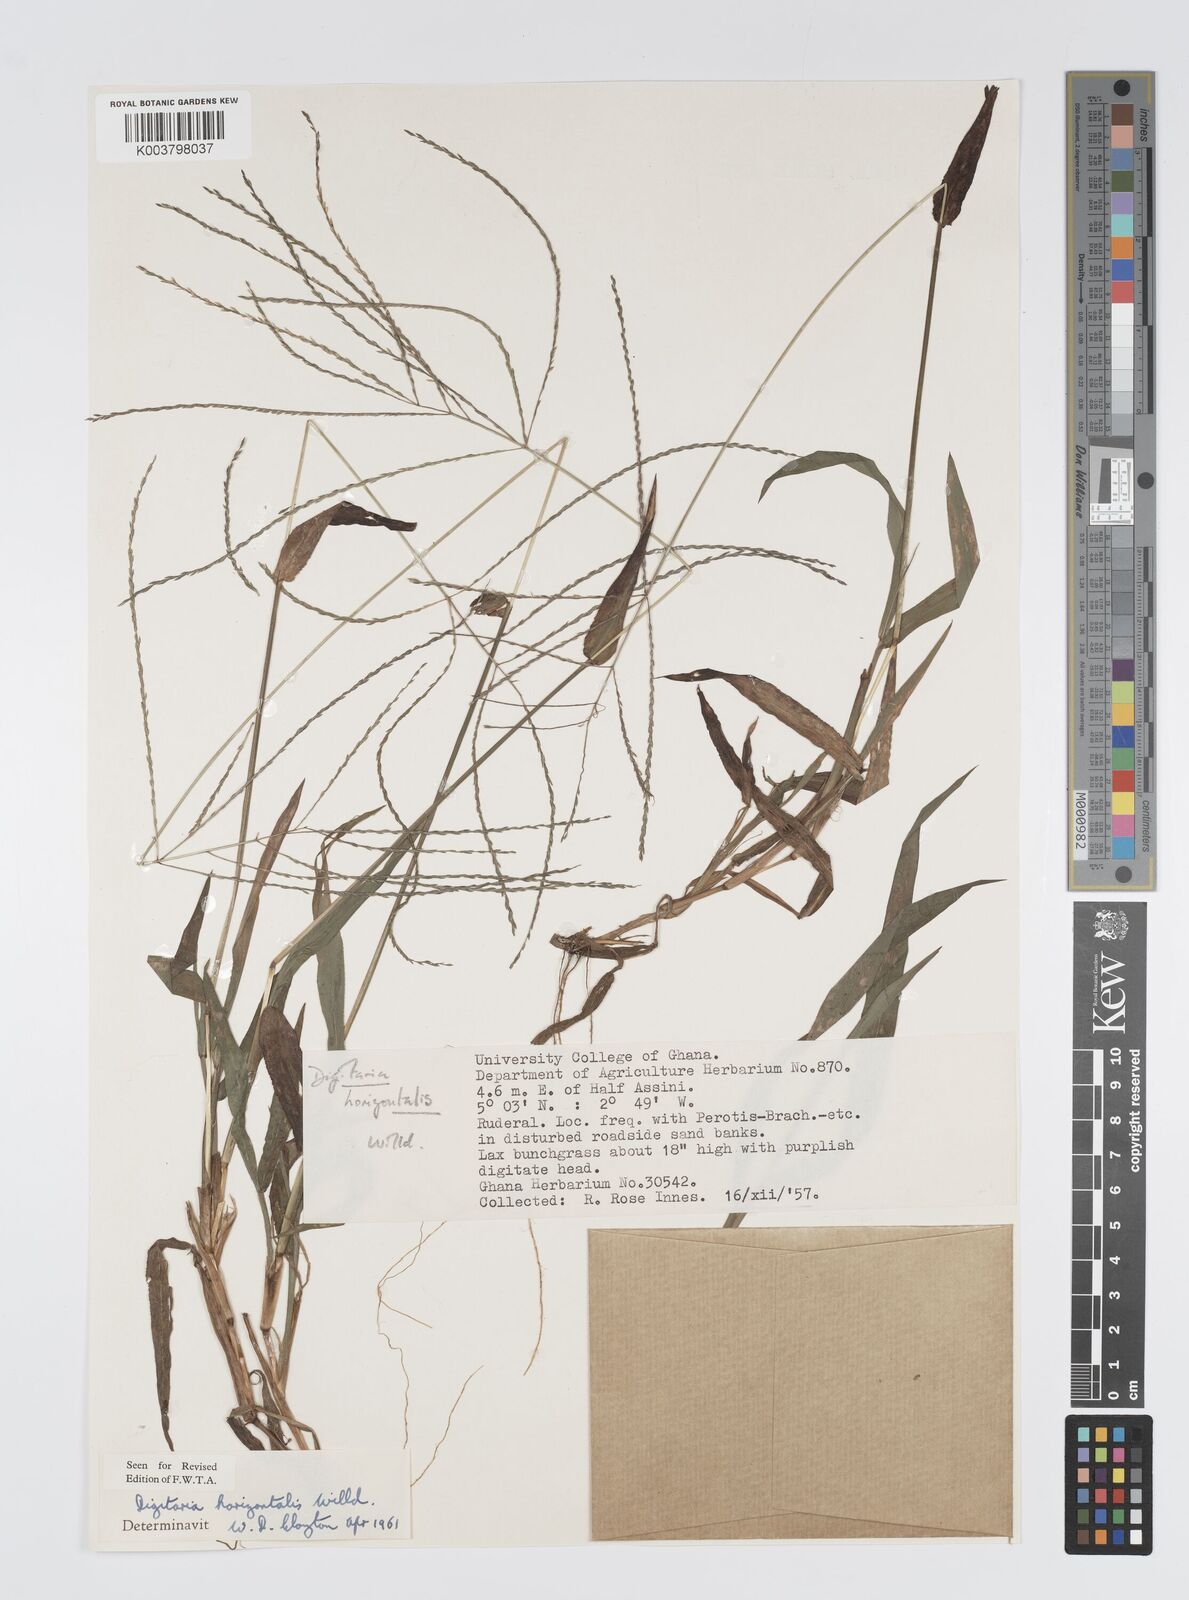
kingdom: Plantae
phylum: Tracheophyta
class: Liliopsida
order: Poales
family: Poaceae
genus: Digitaria
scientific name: Digitaria horizontalis
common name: Jamaican crabgrass
